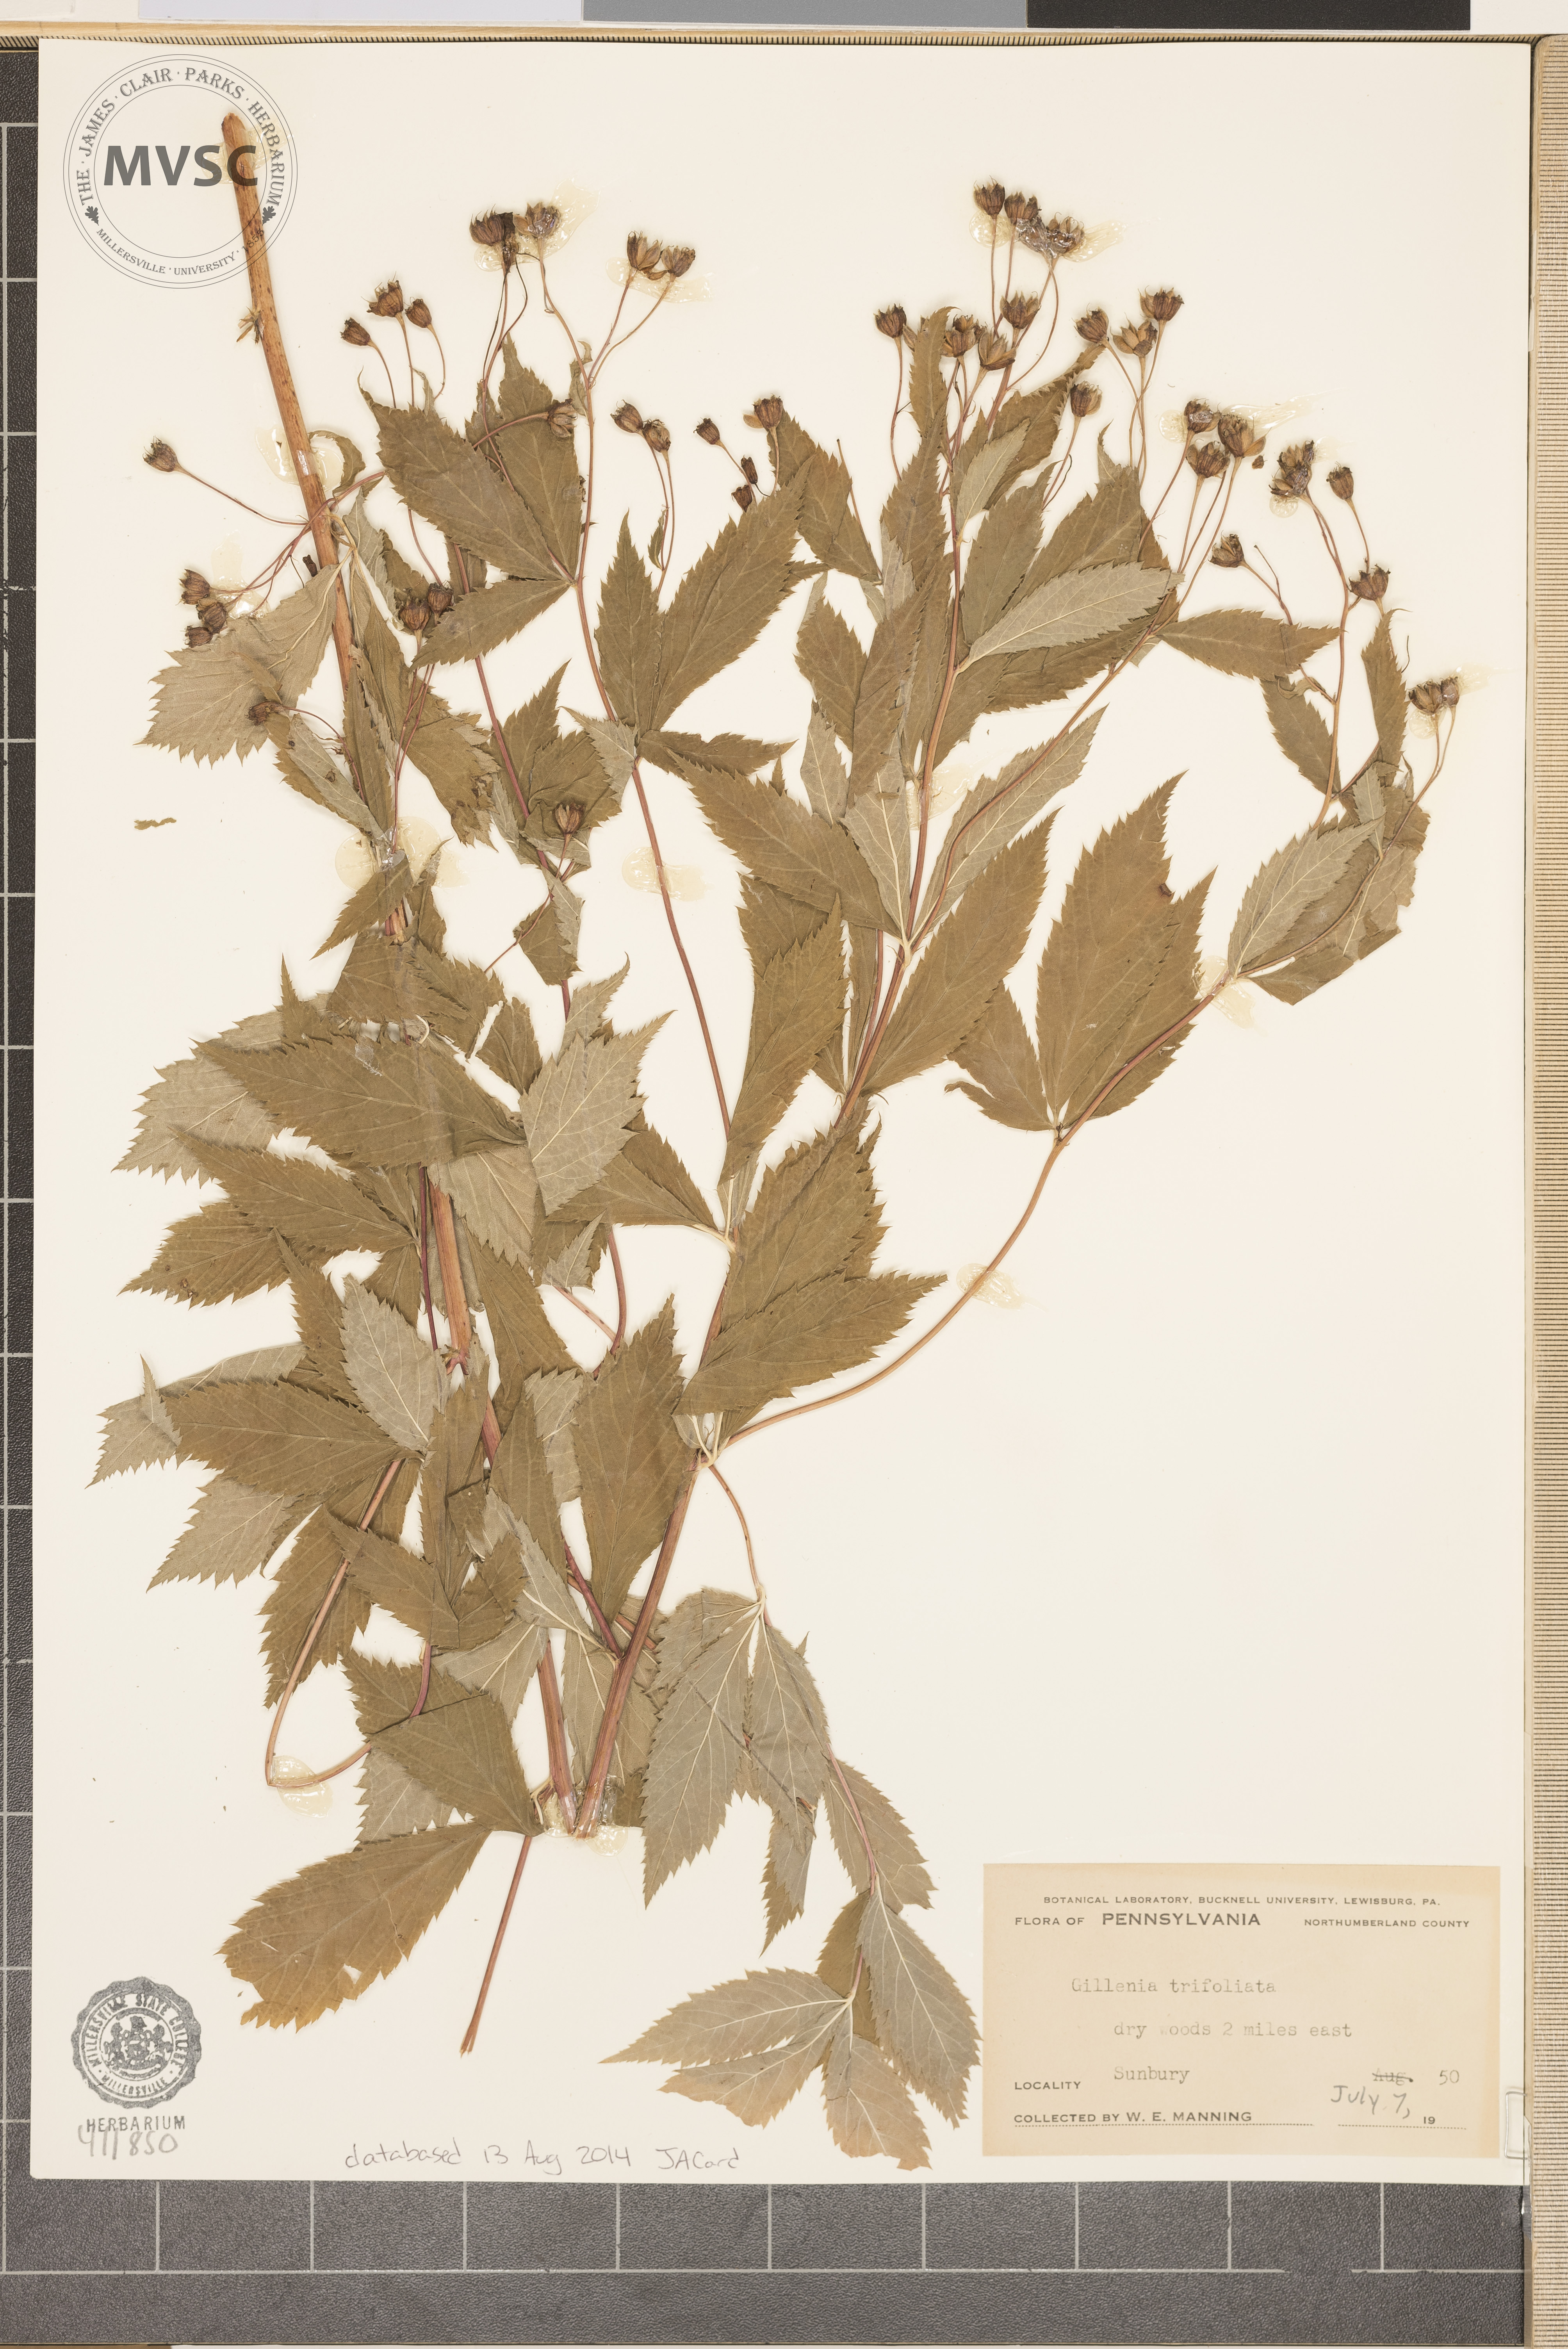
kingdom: Plantae
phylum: Tracheophyta
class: Magnoliopsida
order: Rosales
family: Rosaceae
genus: Gillenia
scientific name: Gillenia trifoliata
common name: Bowman's-root
